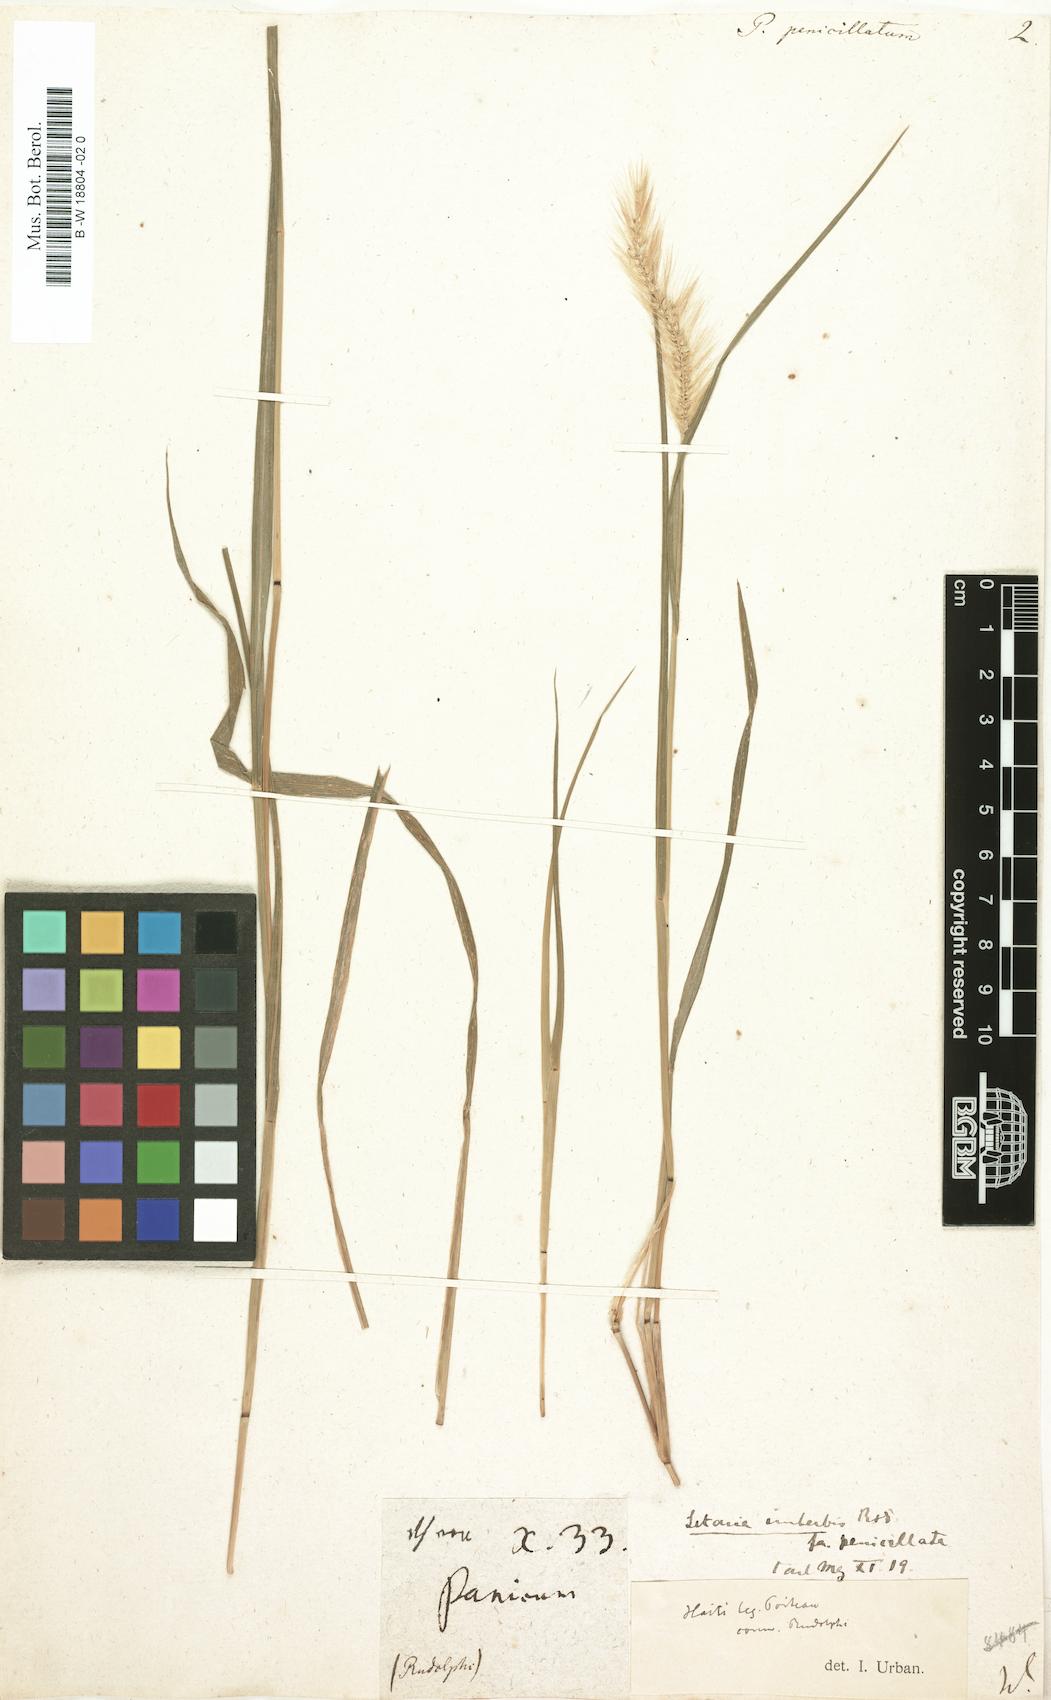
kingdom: Plantae
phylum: Tracheophyta
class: Liliopsida
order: Poales
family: Poaceae
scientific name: Poaceae
